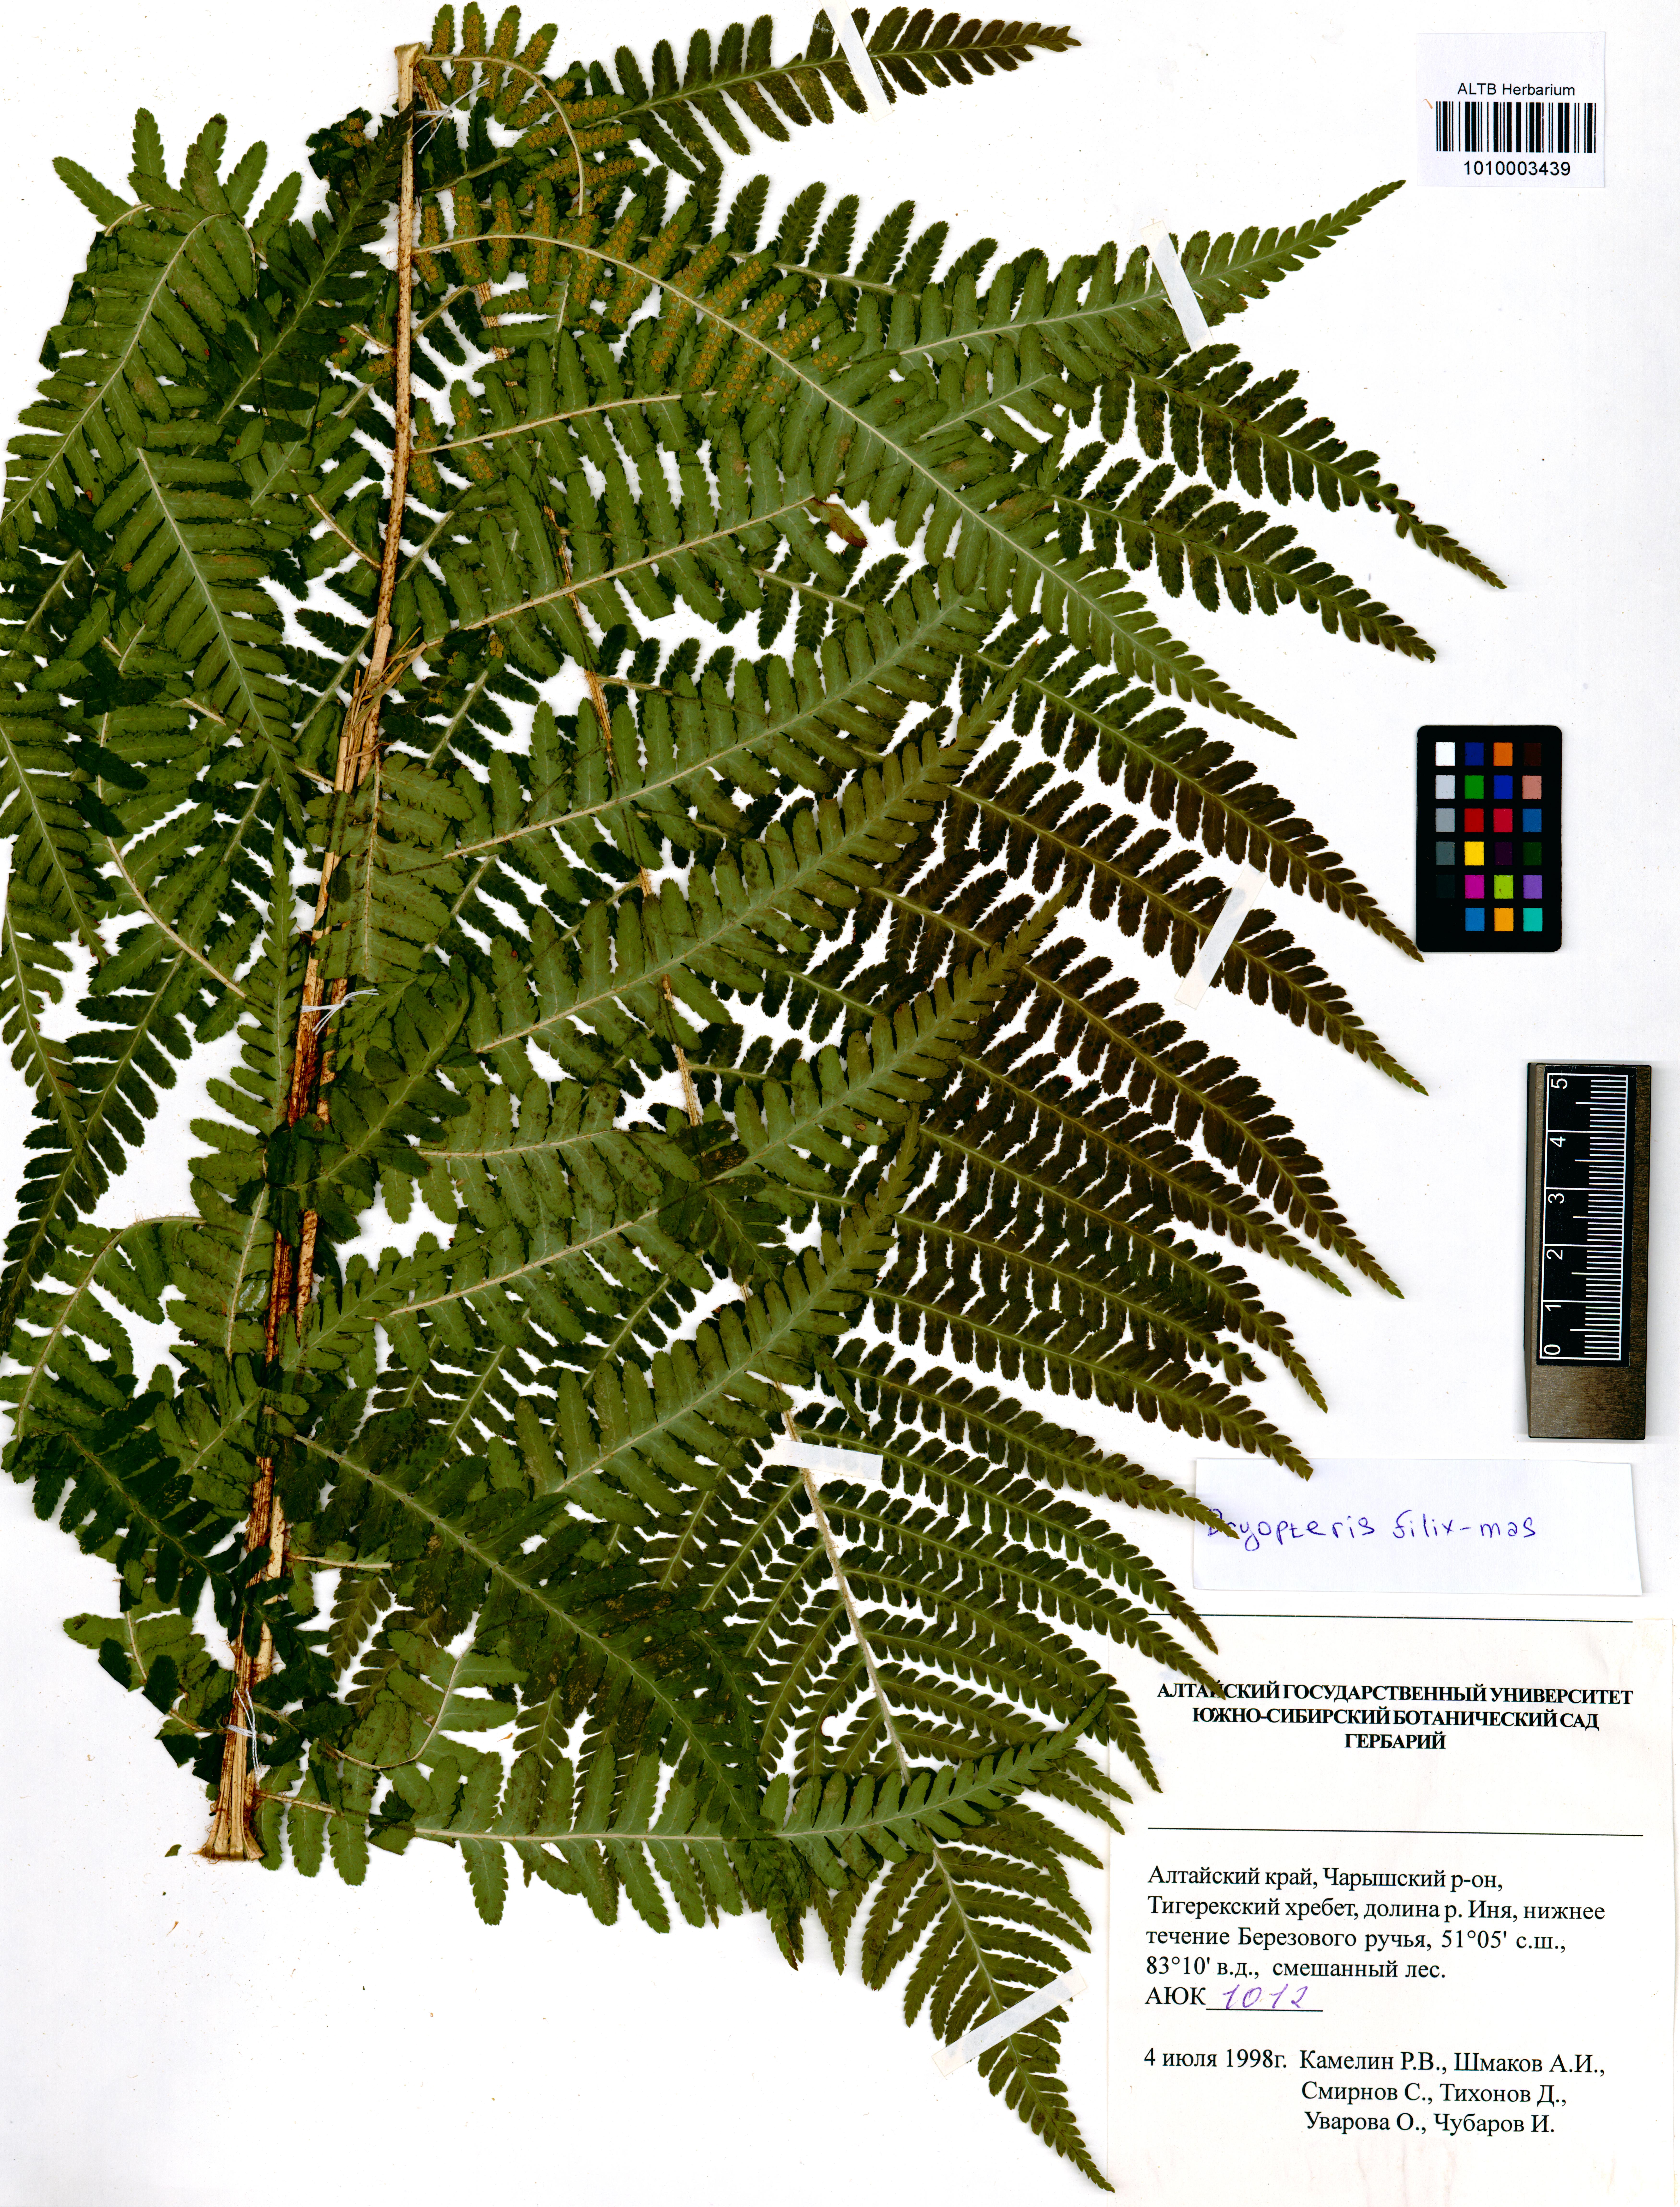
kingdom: Plantae
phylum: Tracheophyta
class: Polypodiopsida
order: Polypodiales
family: Dryopteridaceae
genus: Dryopteris
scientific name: Dryopteris filix-mas
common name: Male fern
